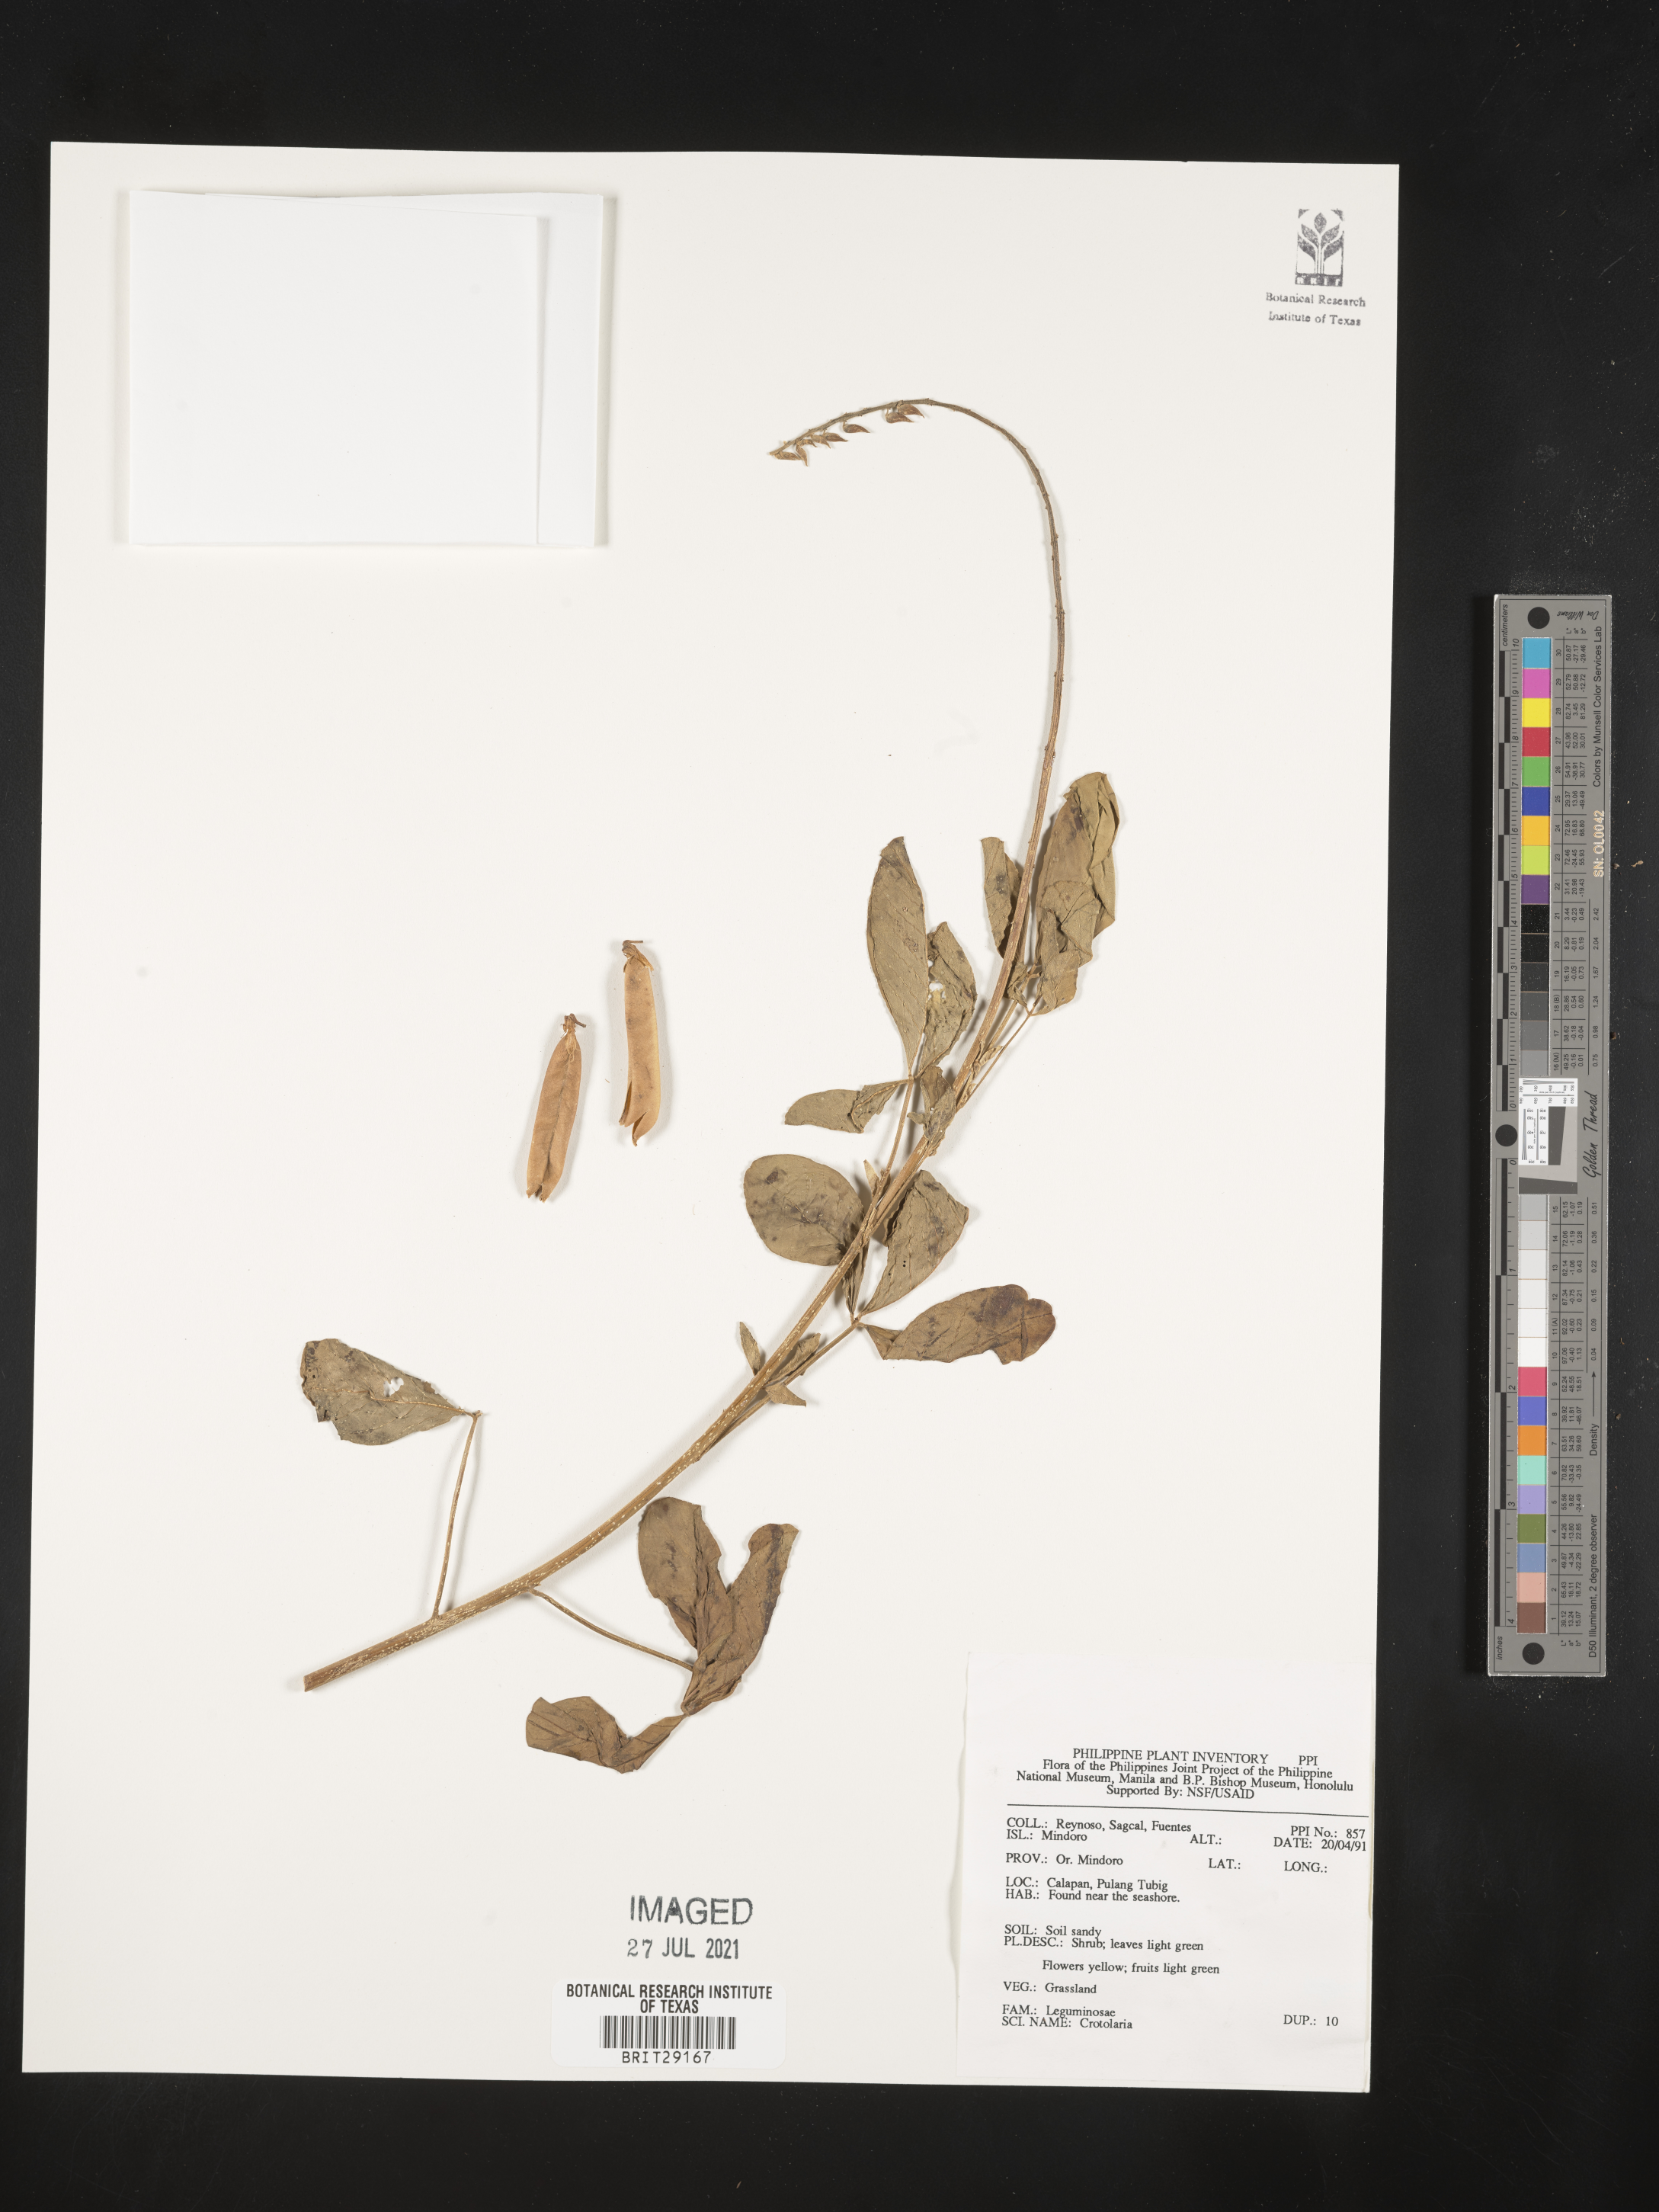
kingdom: Plantae
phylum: Tracheophyta
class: Magnoliopsida
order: Fabales
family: Fabaceae
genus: Crotalaria
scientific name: Crotalaria
